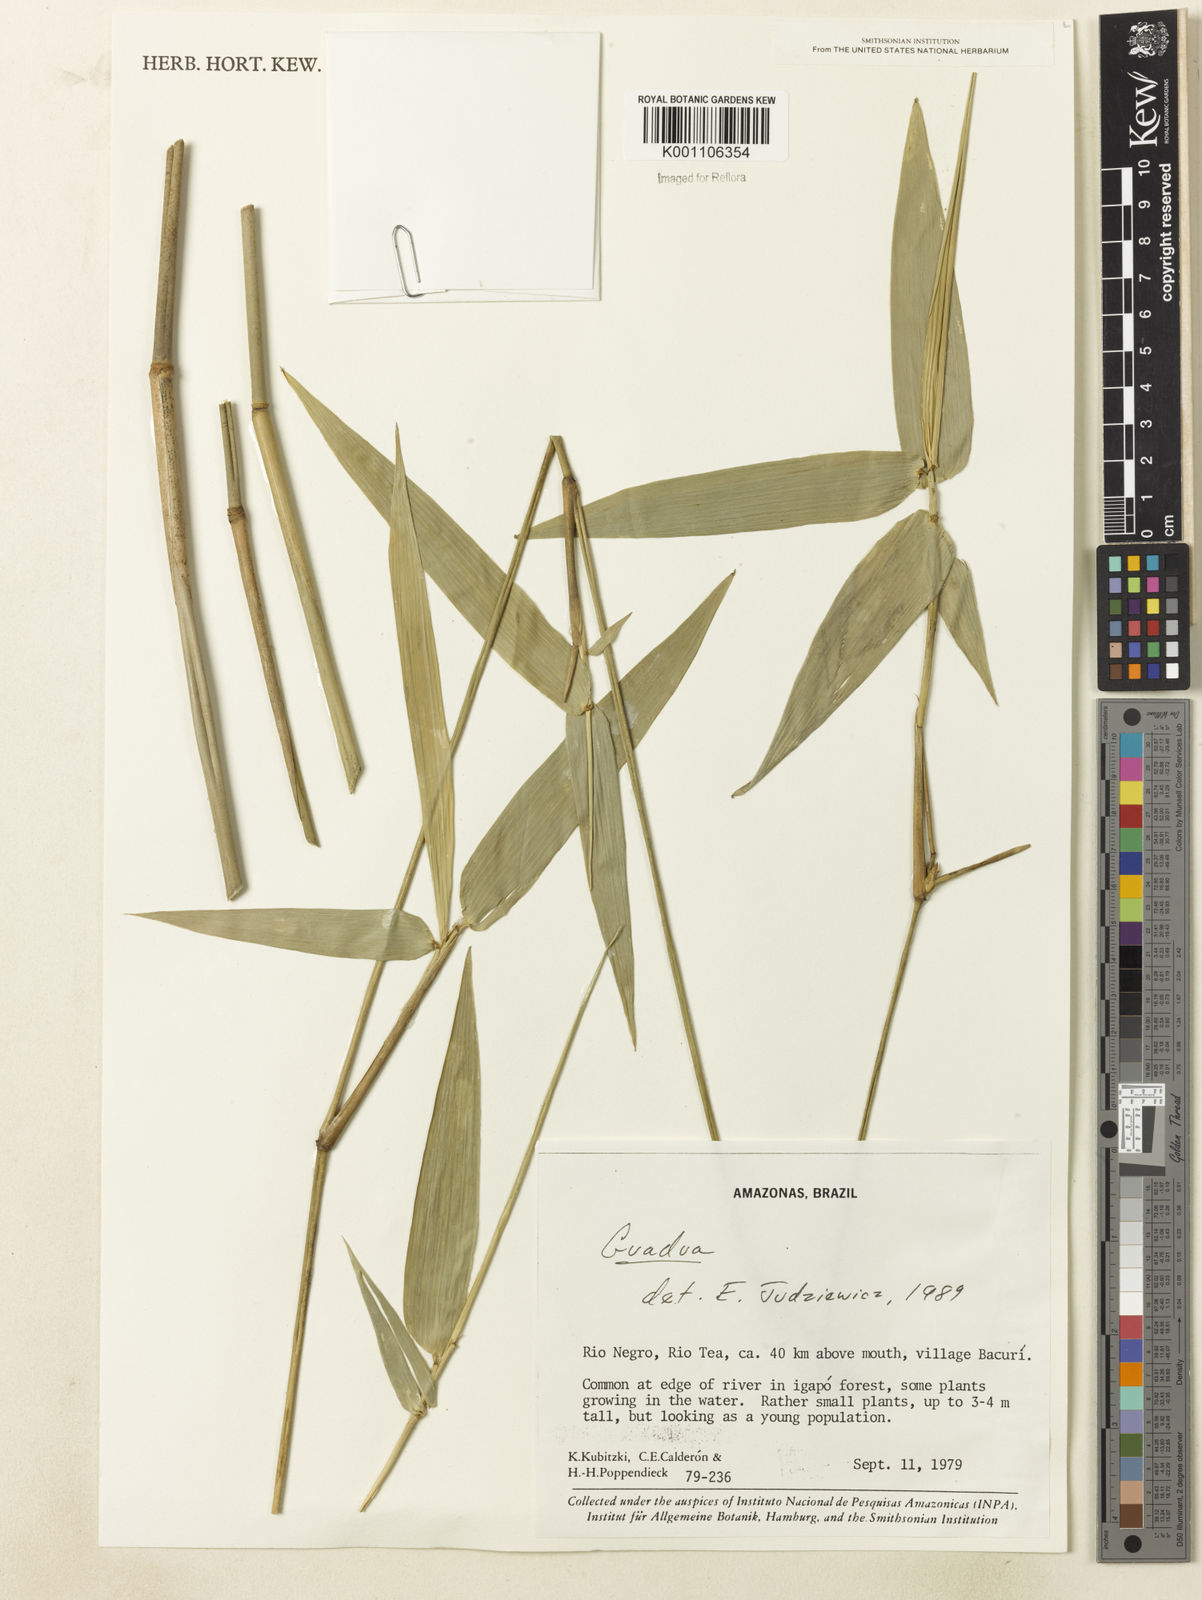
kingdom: Plantae
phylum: Tracheophyta
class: Liliopsida
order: Poales
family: Poaceae
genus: Guadua
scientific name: Guadua
